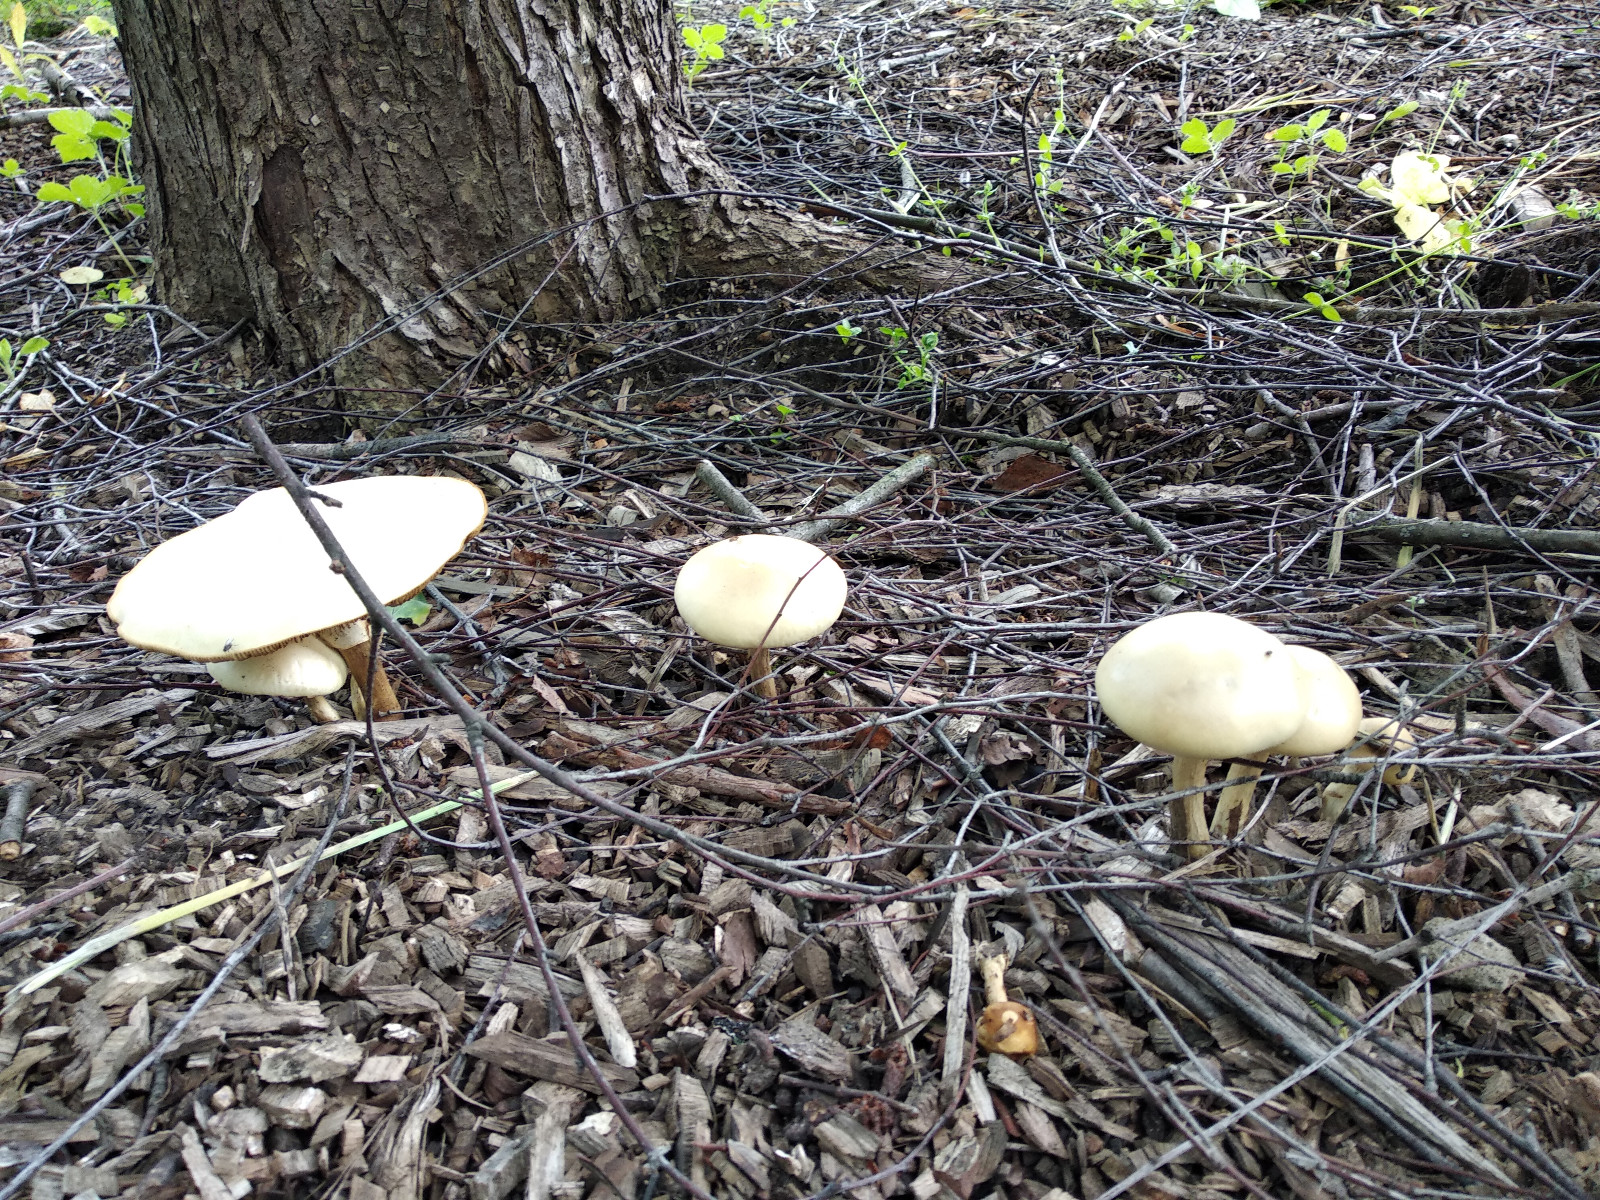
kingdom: Fungi
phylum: Basidiomycota
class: Agaricomycetes
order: Agaricales
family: Strophariaceae
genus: Agrocybe
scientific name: Agrocybe
